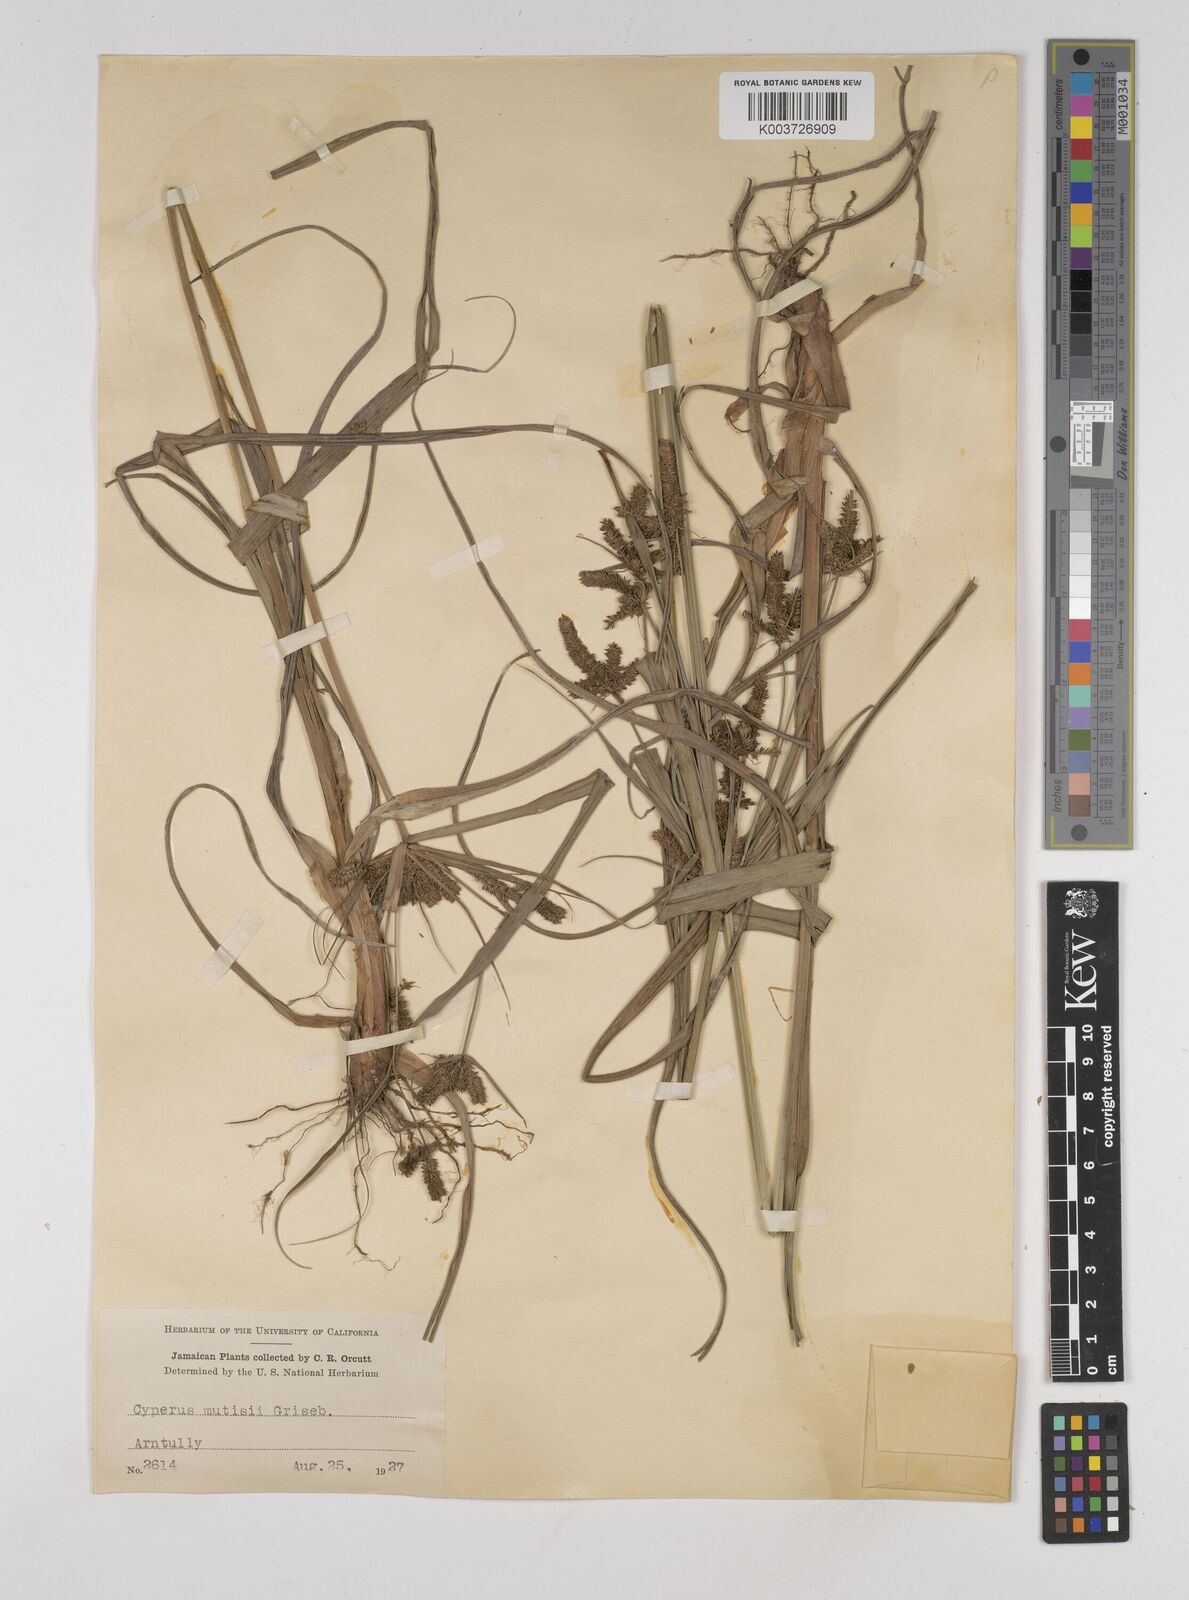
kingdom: Plantae
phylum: Tracheophyta
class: Liliopsida
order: Poales
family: Cyperaceae
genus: Cyperus
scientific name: Cyperus
